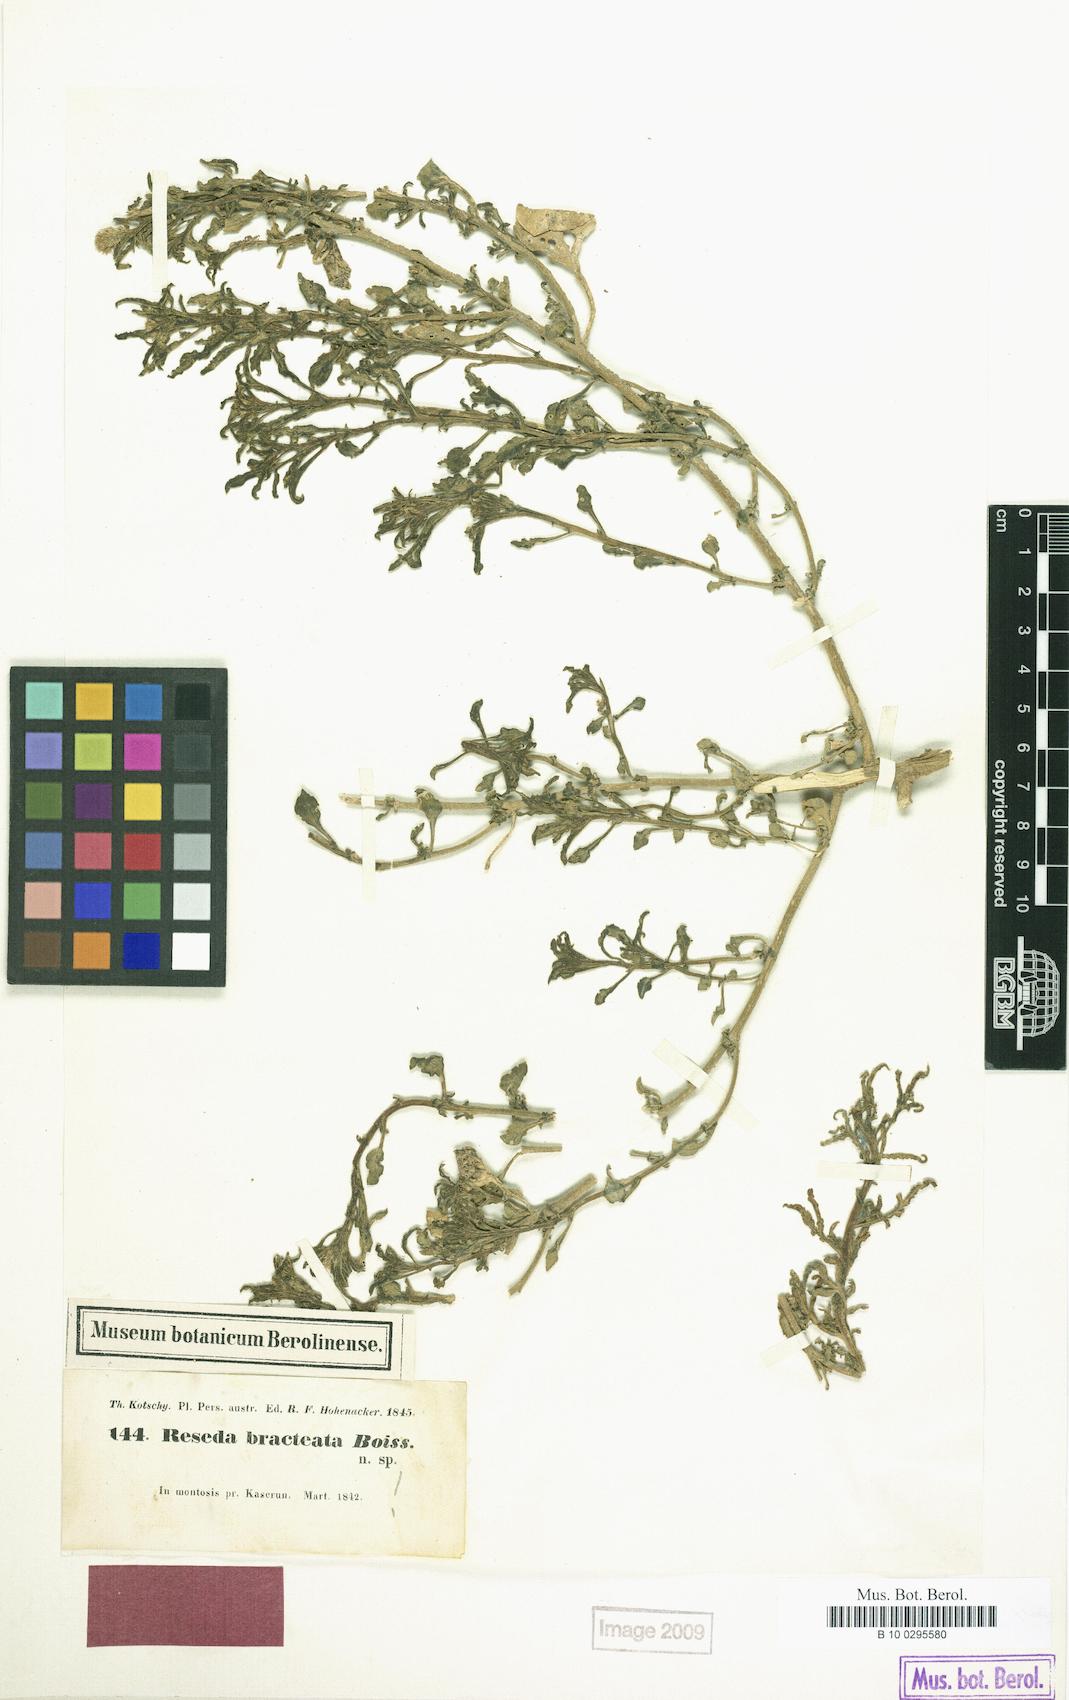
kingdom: Plantae
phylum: Tracheophyta
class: Magnoliopsida
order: Brassicales
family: Resedaceae
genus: Reseda
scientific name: Reseda aucheri
